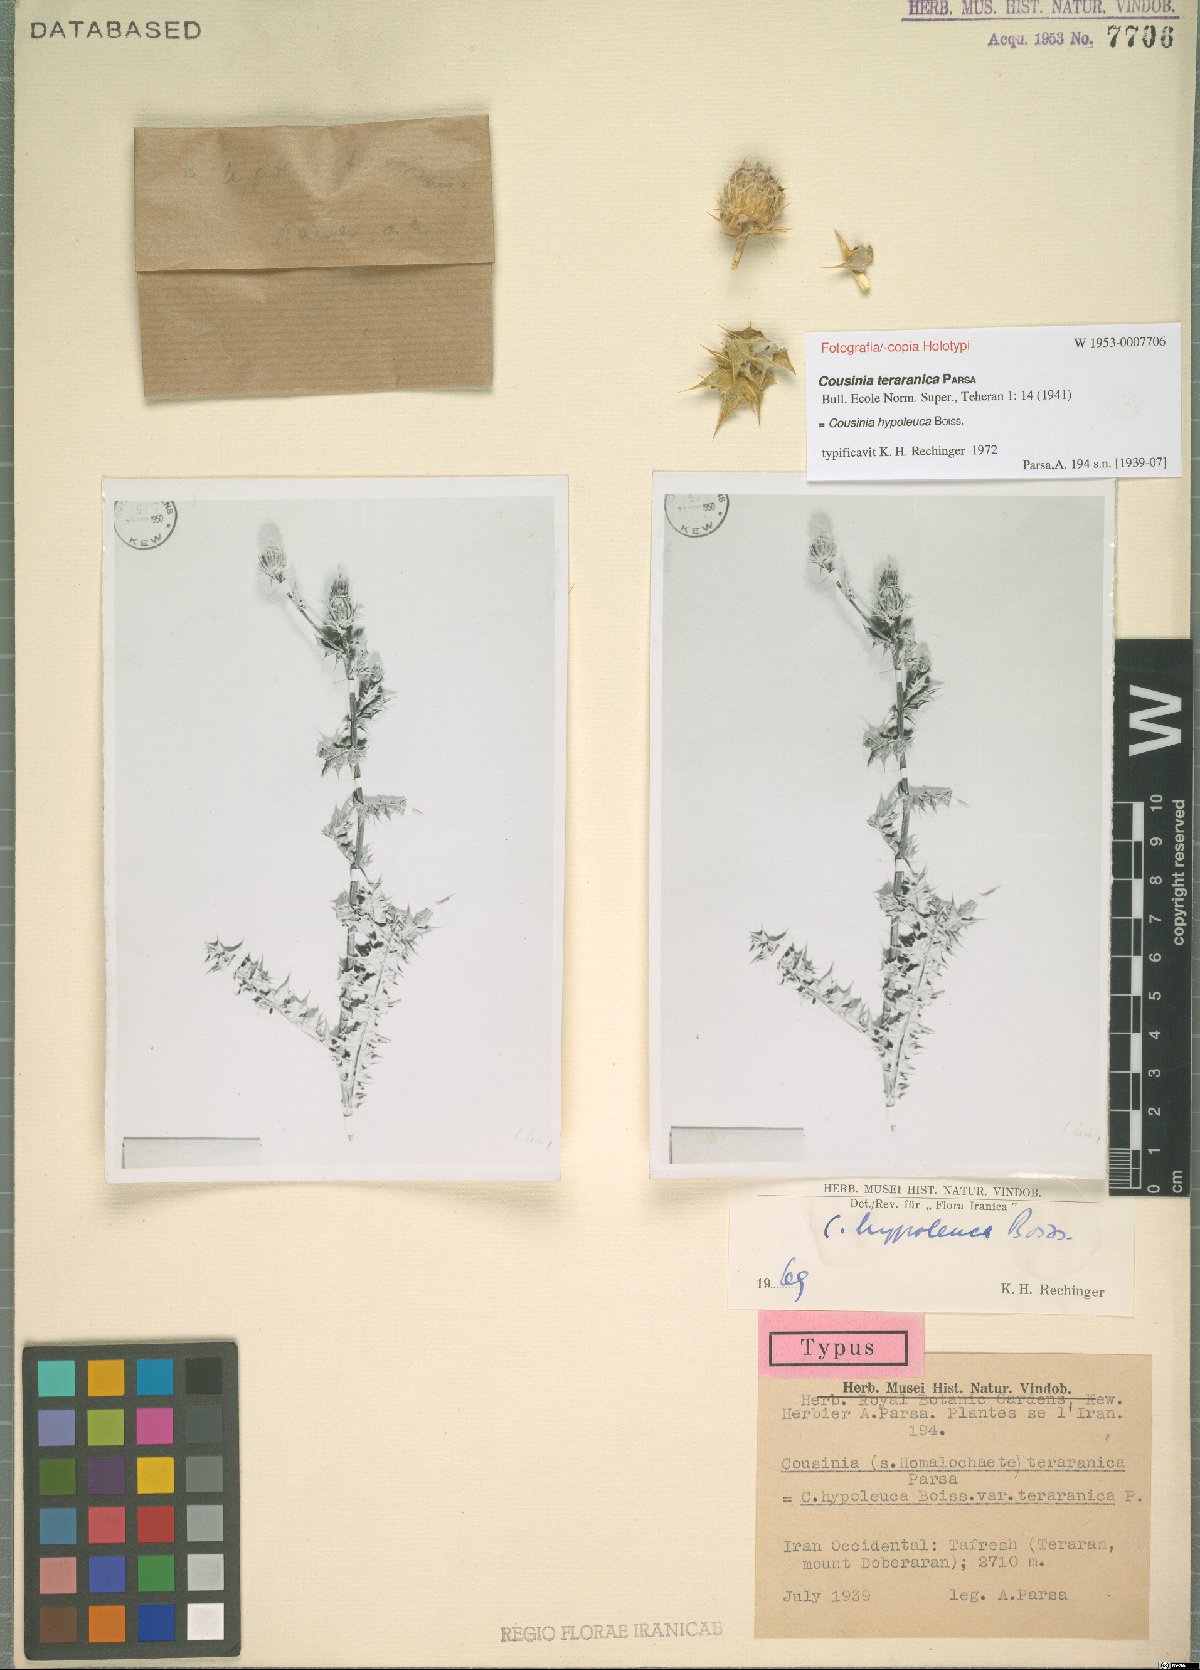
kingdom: Plantae
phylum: Tracheophyta
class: Magnoliopsida
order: Asterales
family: Asteraceae
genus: Cousinia
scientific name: Cousinia hypoleuca
